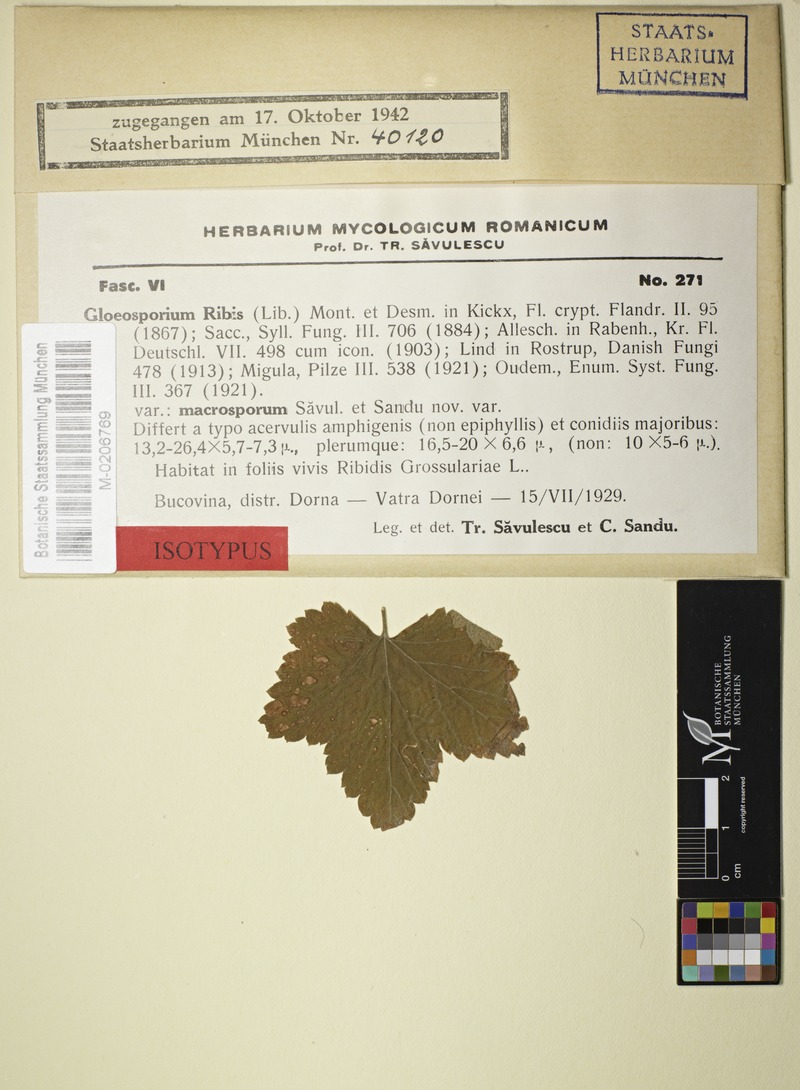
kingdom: Fungi
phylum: Ascomycota
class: Leotiomycetes
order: Helotiales
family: Drepanopezizaceae
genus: Drepanopeziza
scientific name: Drepanopeziza ribis
